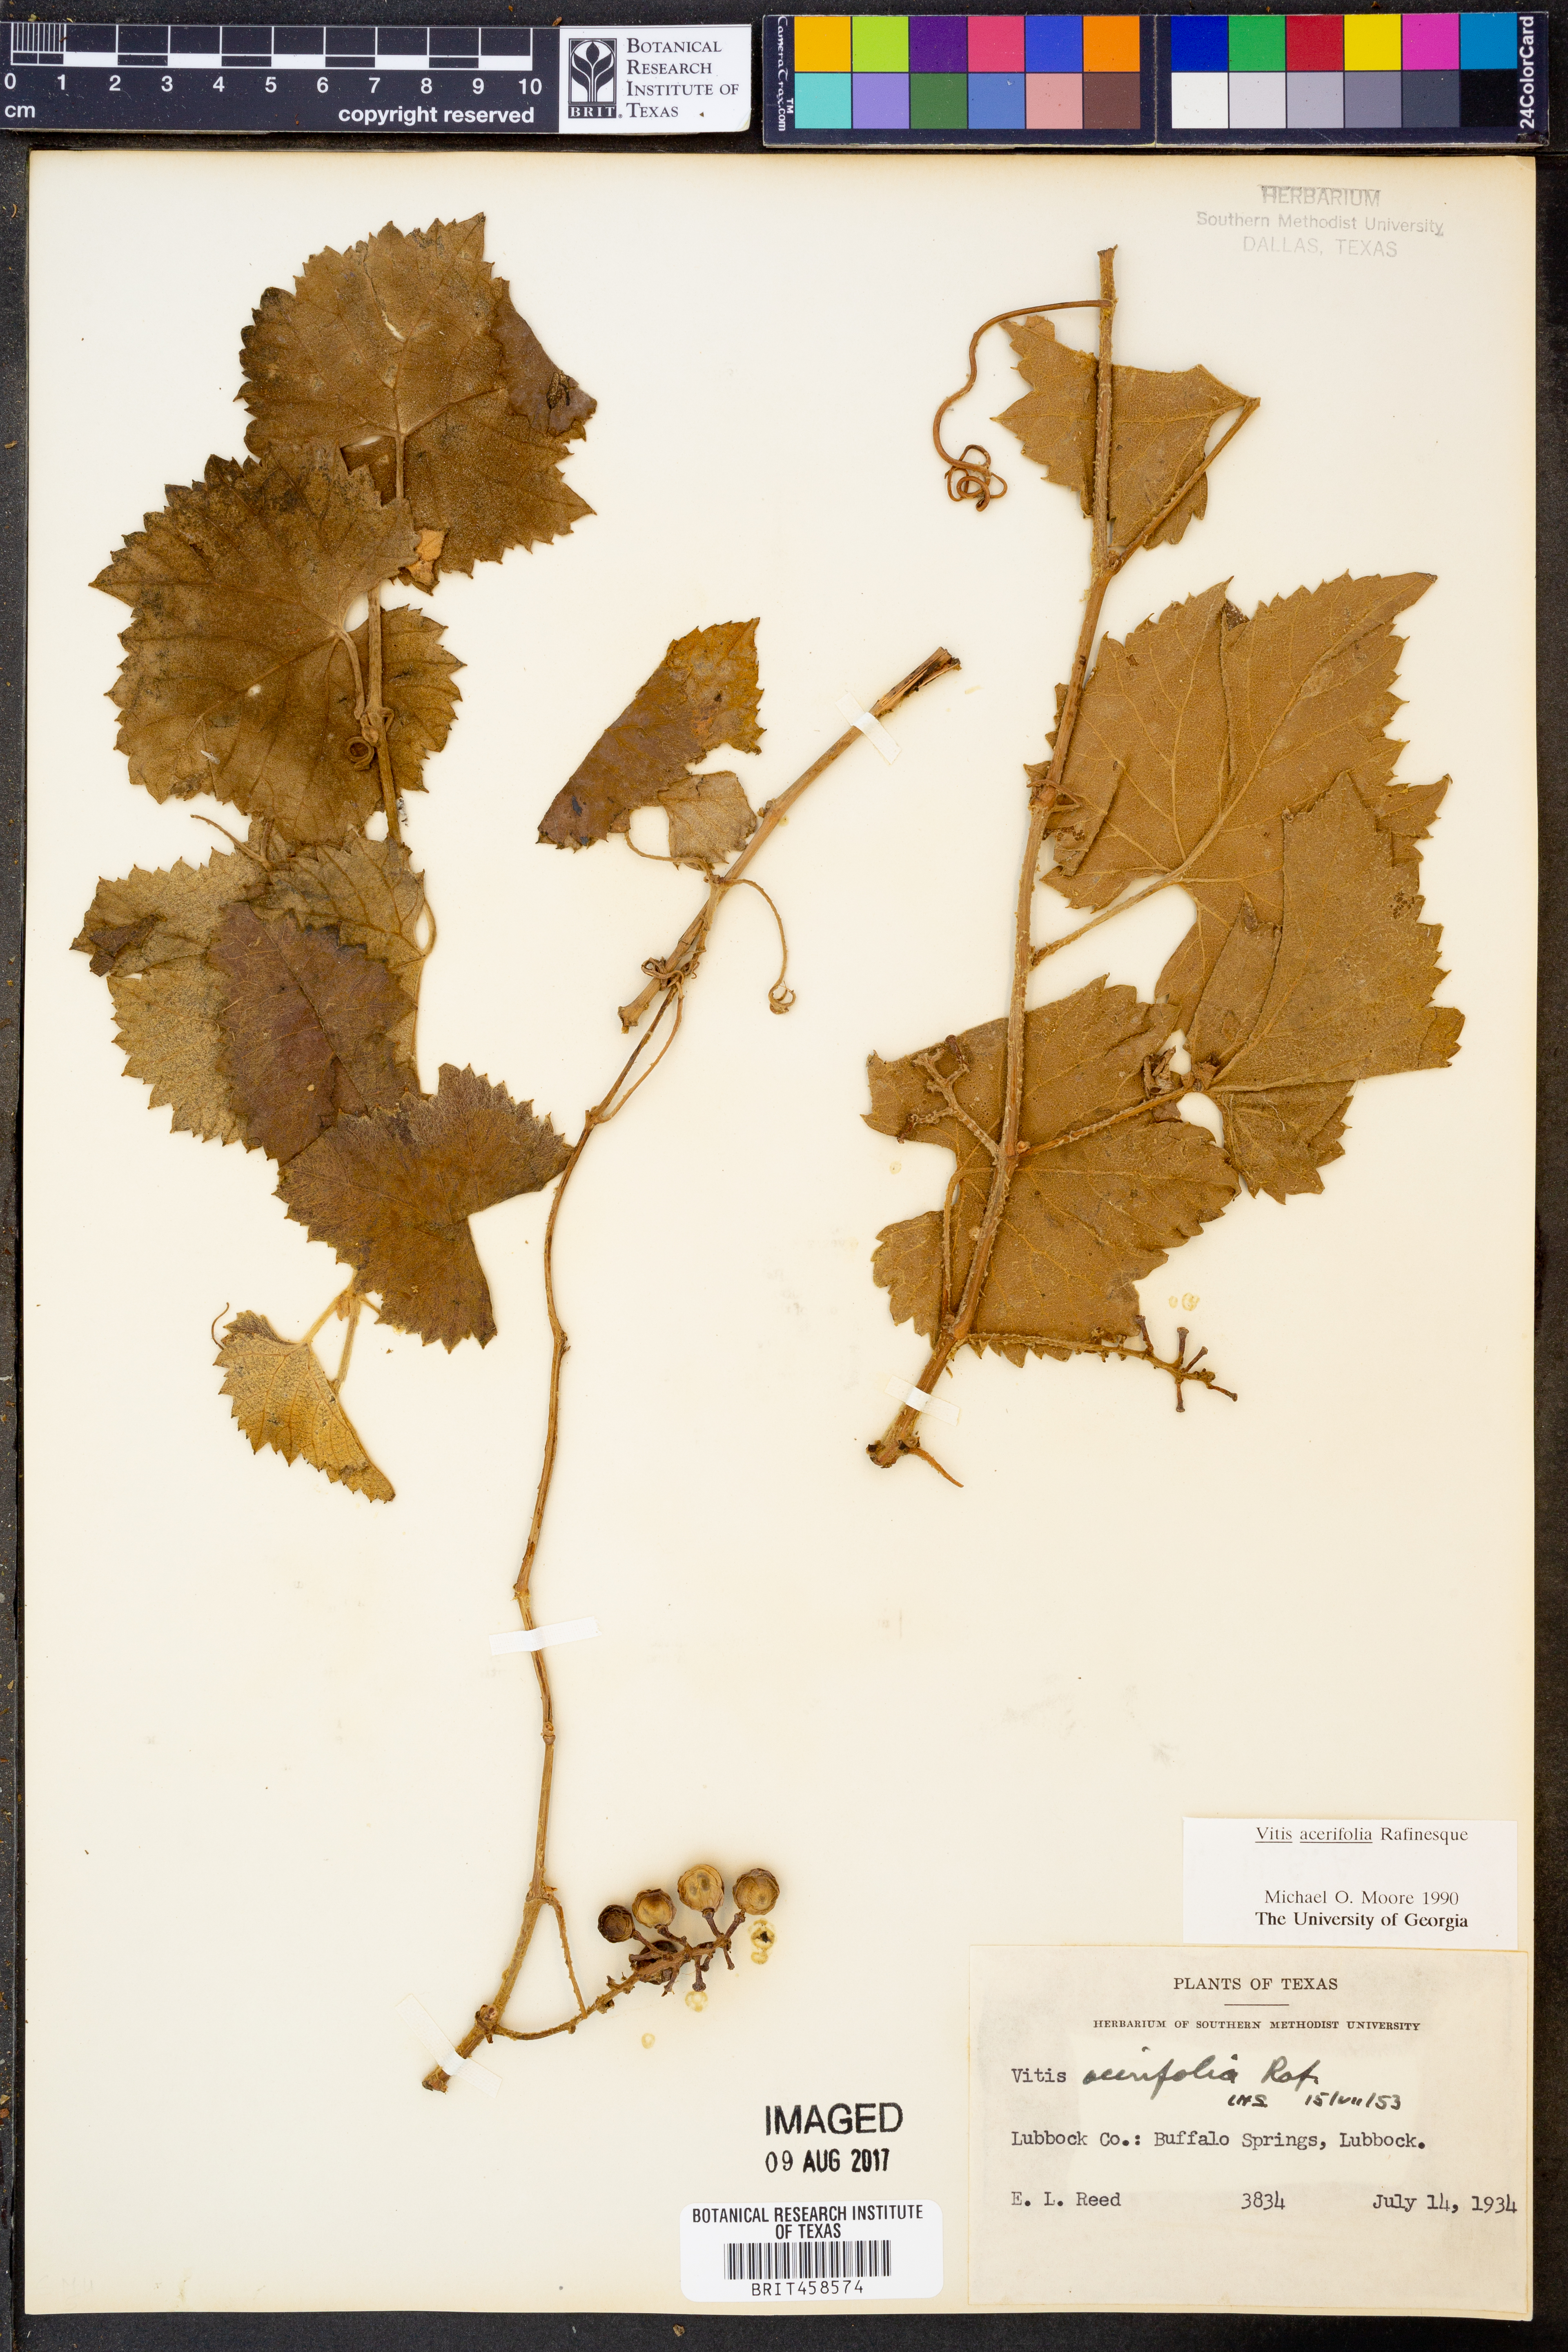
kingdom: Plantae
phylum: Tracheophyta
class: Magnoliopsida
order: Vitales
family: Vitaceae
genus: Vitis
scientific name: Vitis acerifolia
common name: Bush grape
